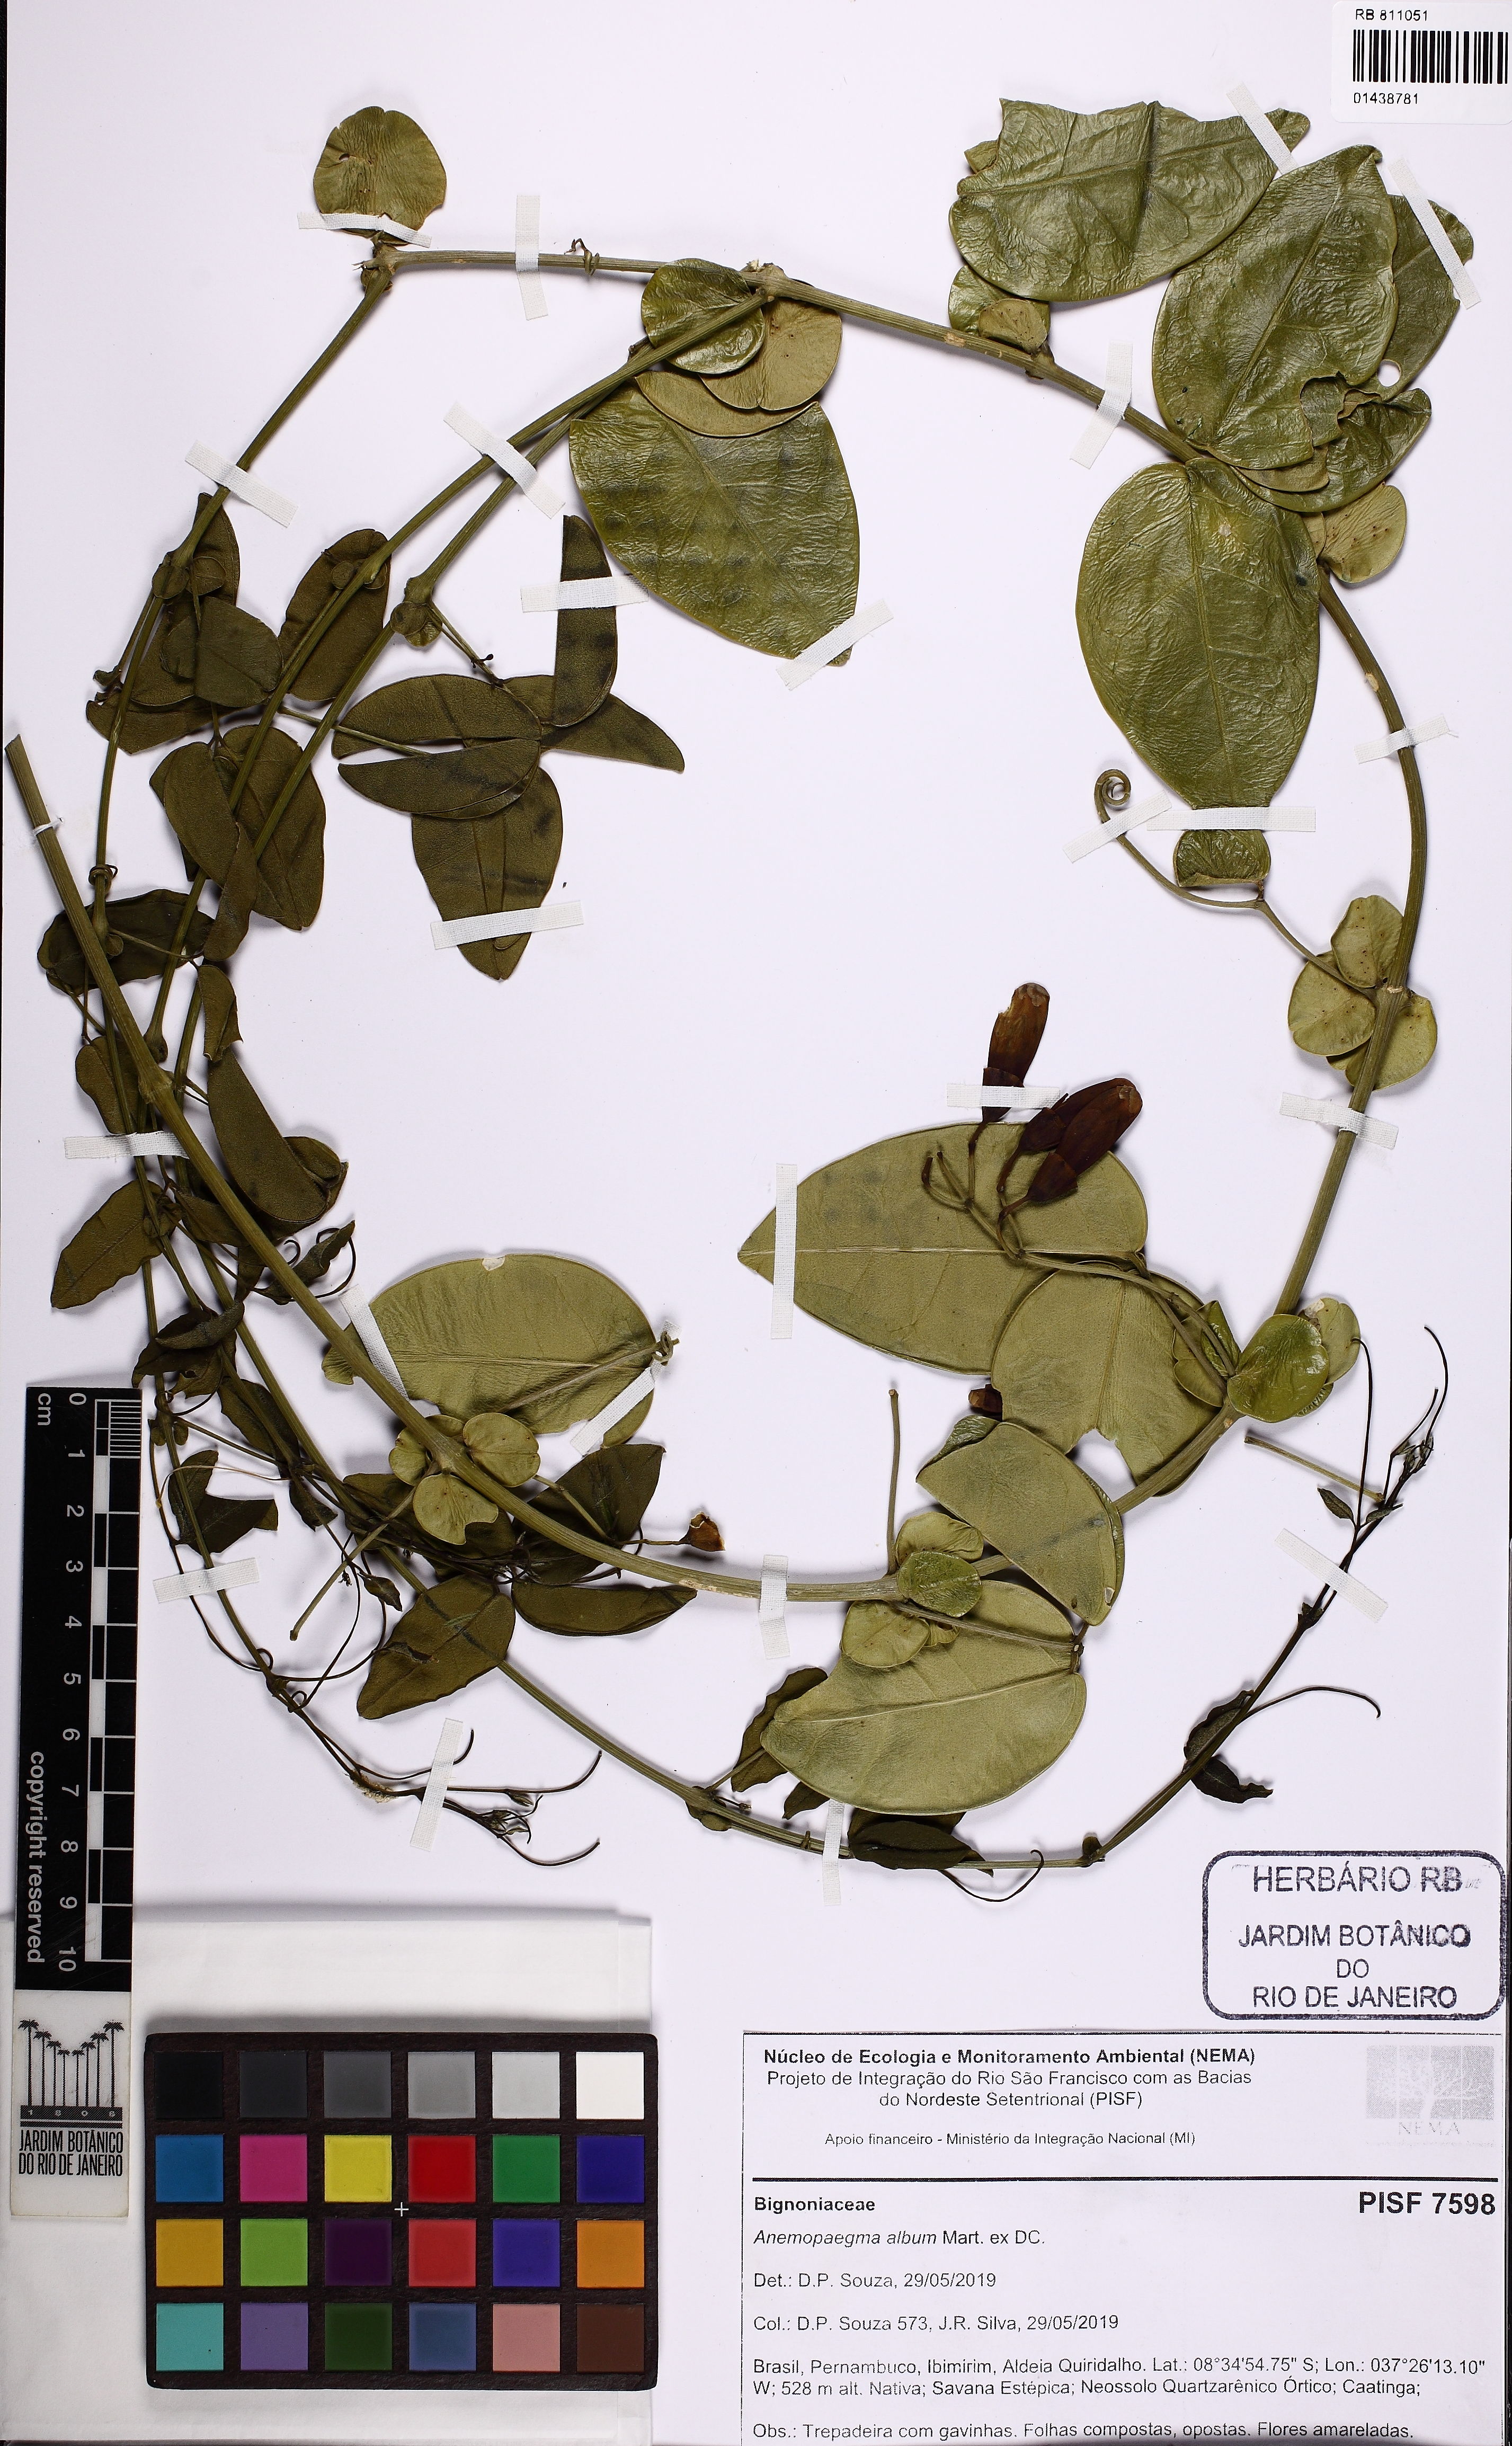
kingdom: Plantae
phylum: Tracheophyta
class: Magnoliopsida
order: Lamiales
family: Bignoniaceae
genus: Anemopaegma
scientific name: Anemopaegma album
